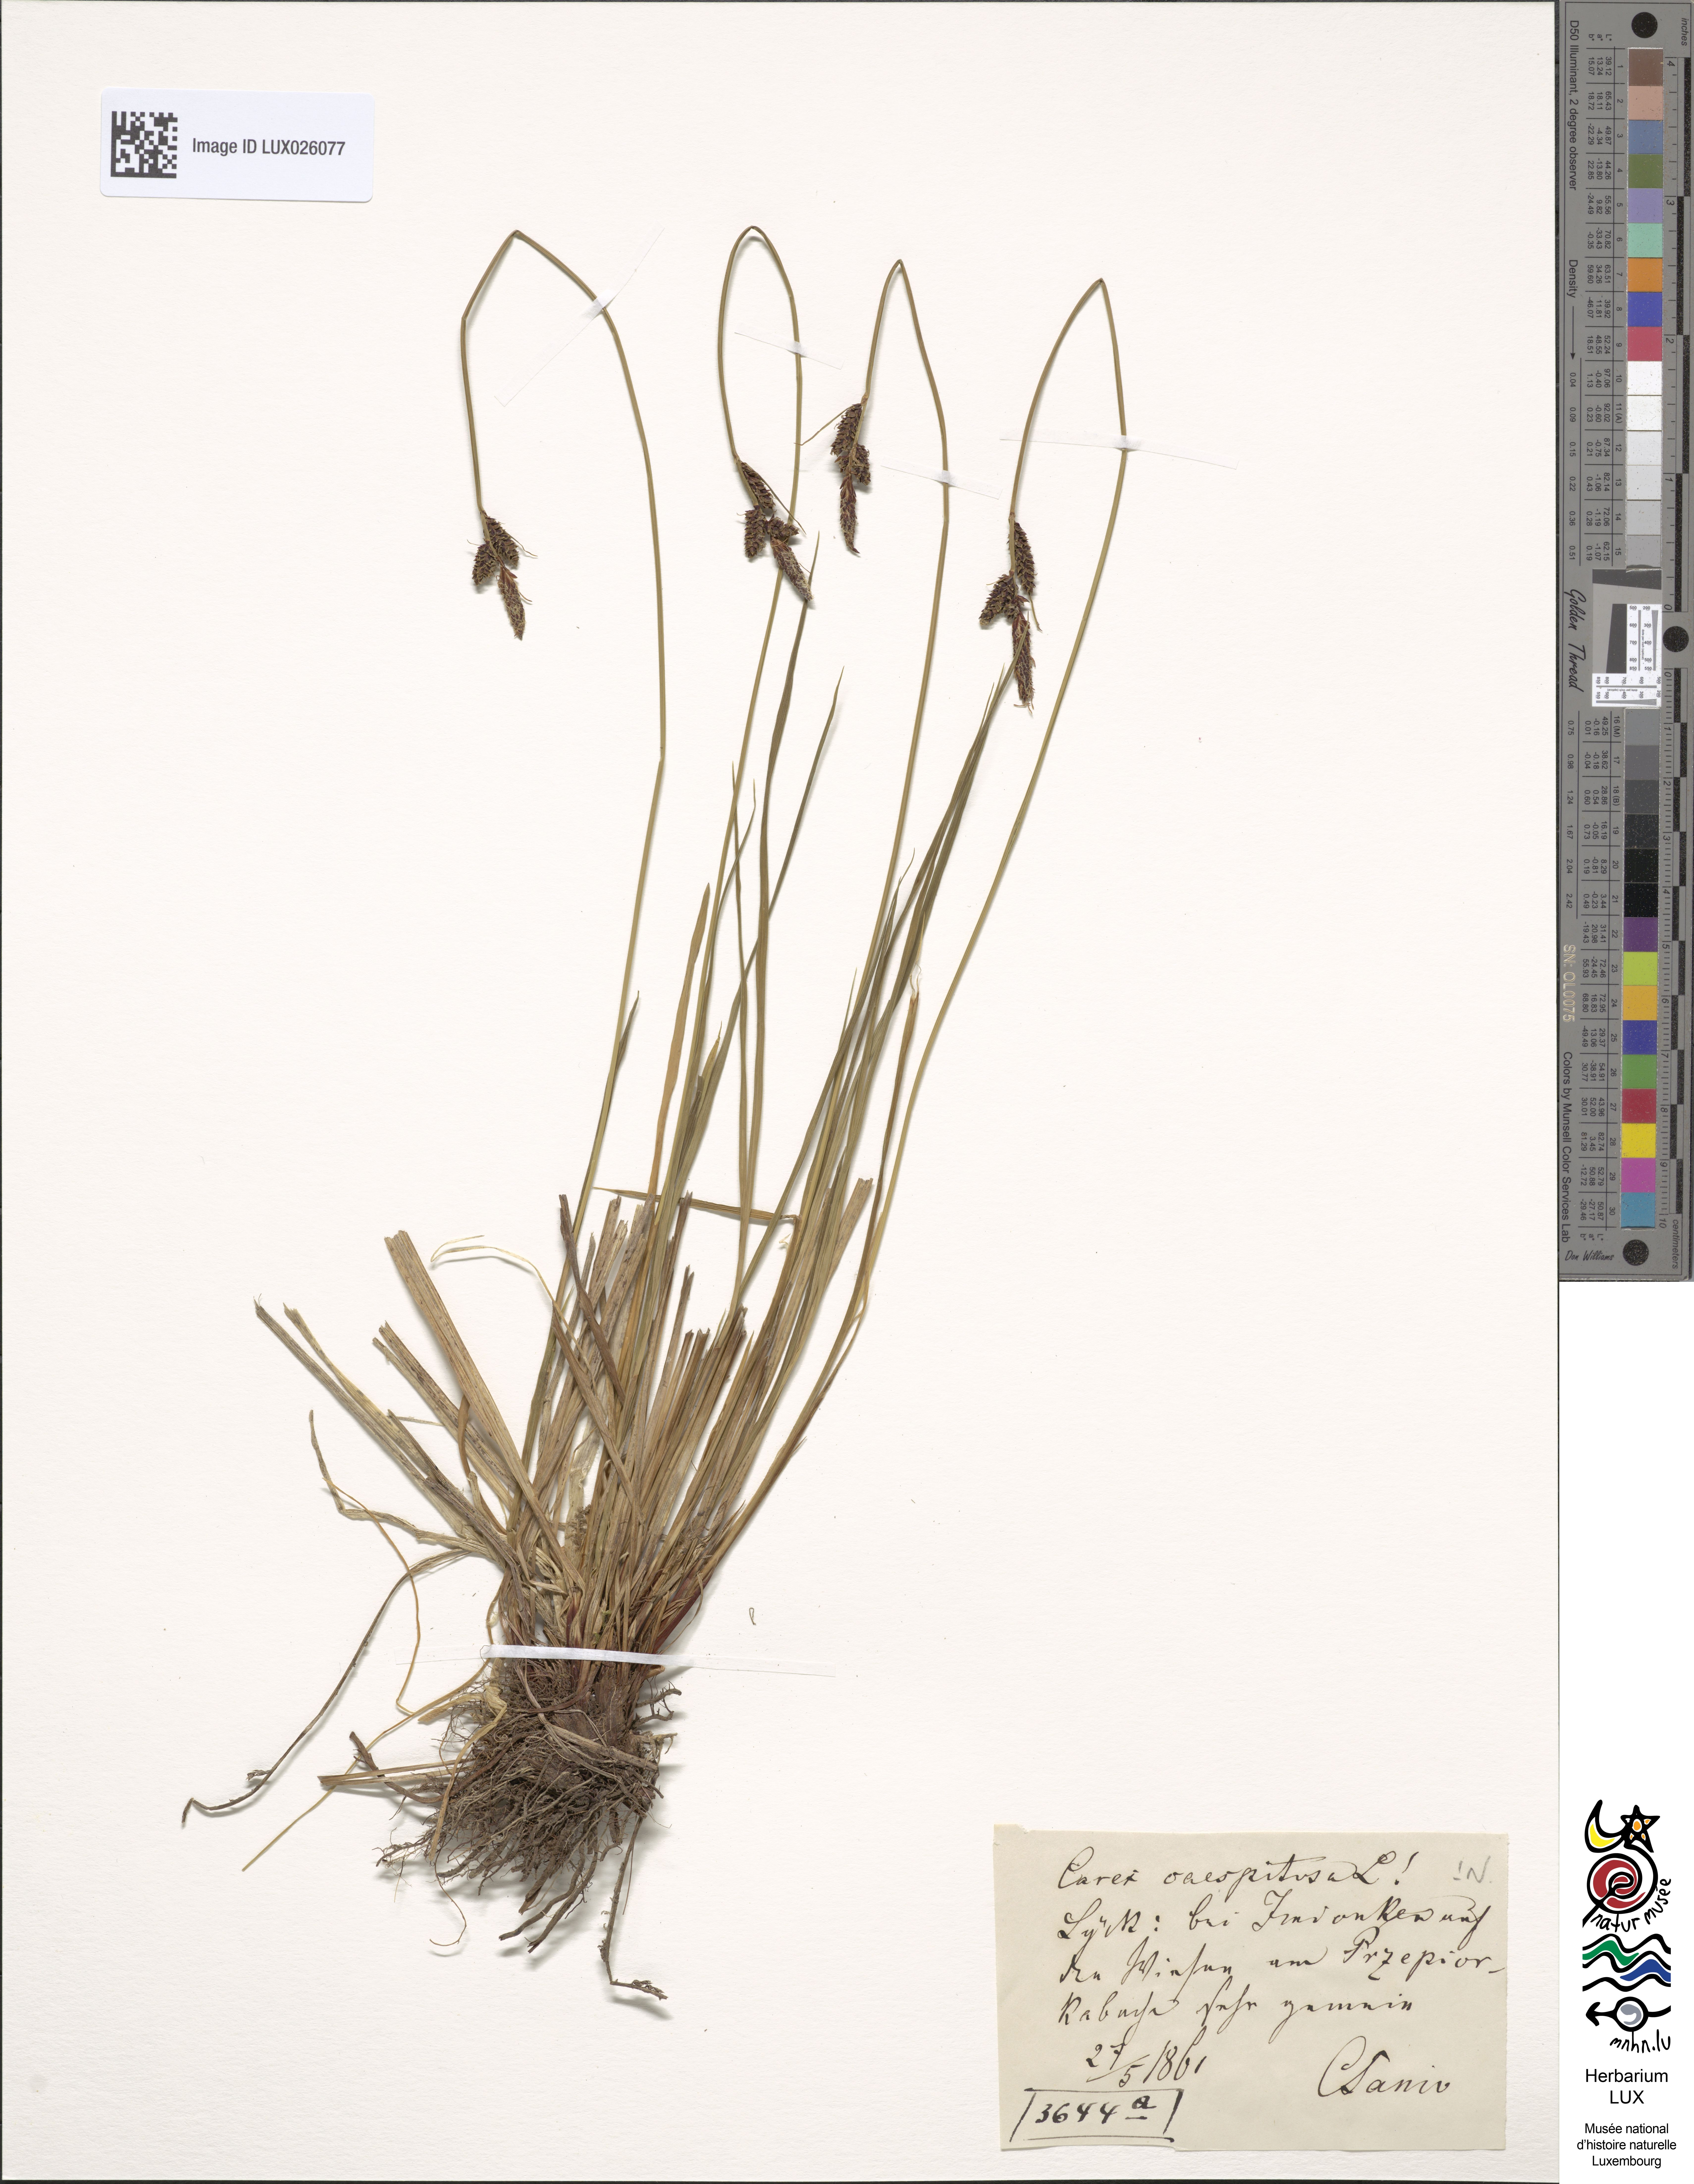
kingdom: Plantae
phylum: Tracheophyta
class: Liliopsida
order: Poales
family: Cyperaceae
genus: Carex
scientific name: Carex cespitosa
